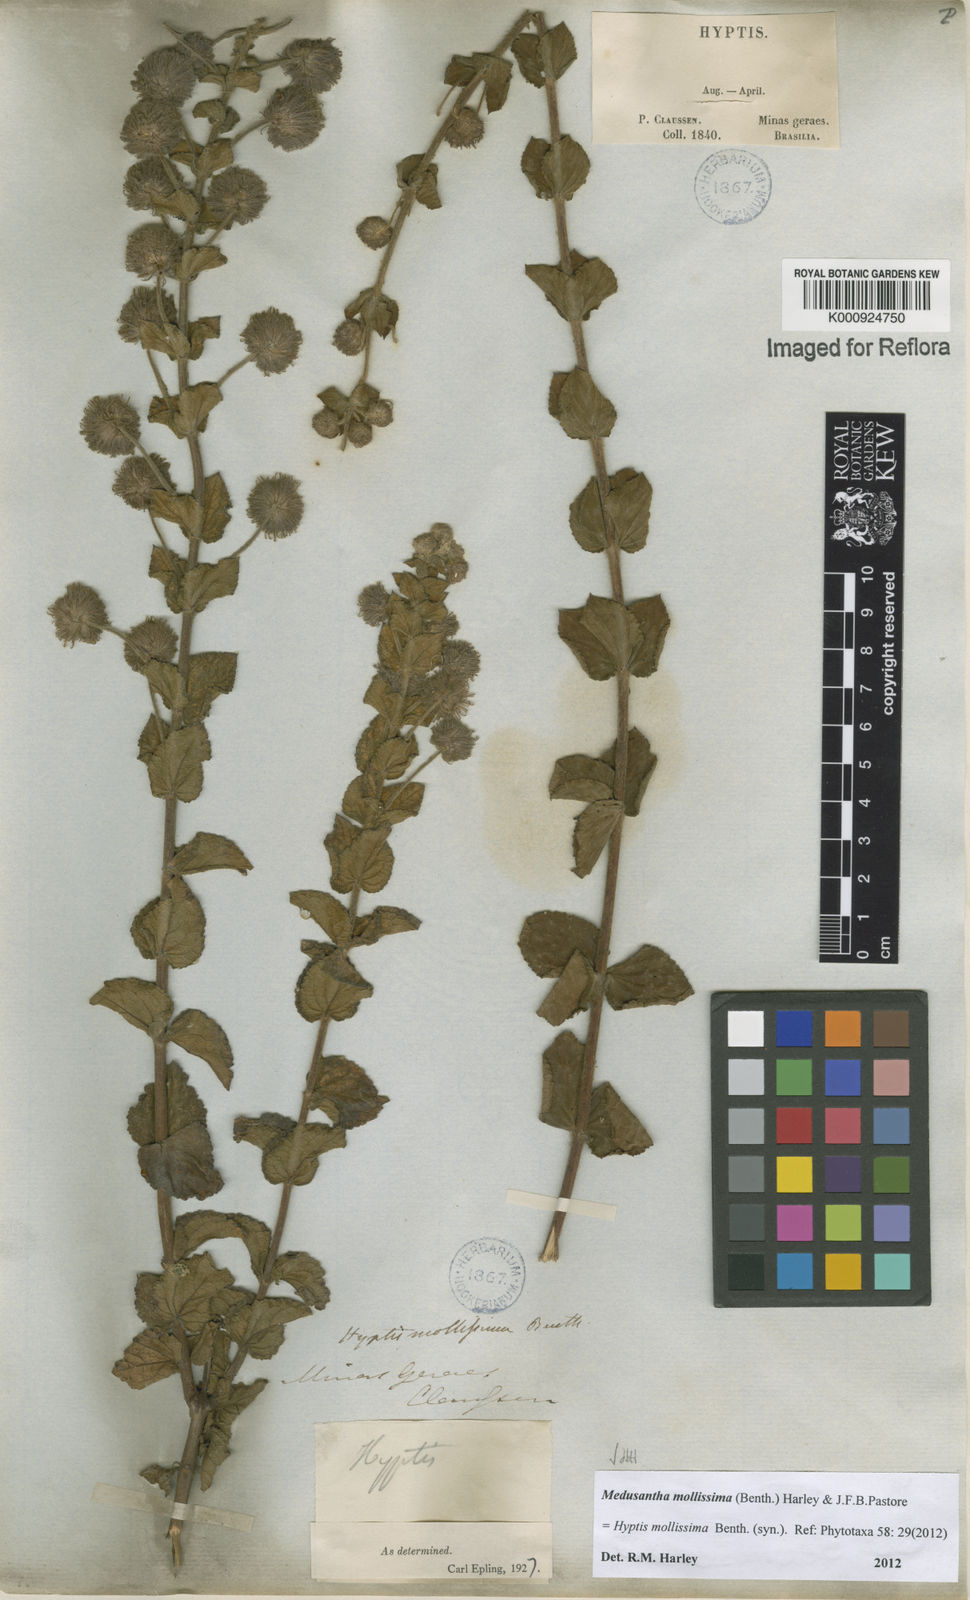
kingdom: Plantae
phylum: Tracheophyta
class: Magnoliopsida
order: Lamiales
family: Lamiaceae
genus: Medusantha
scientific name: Medusantha mollissima
